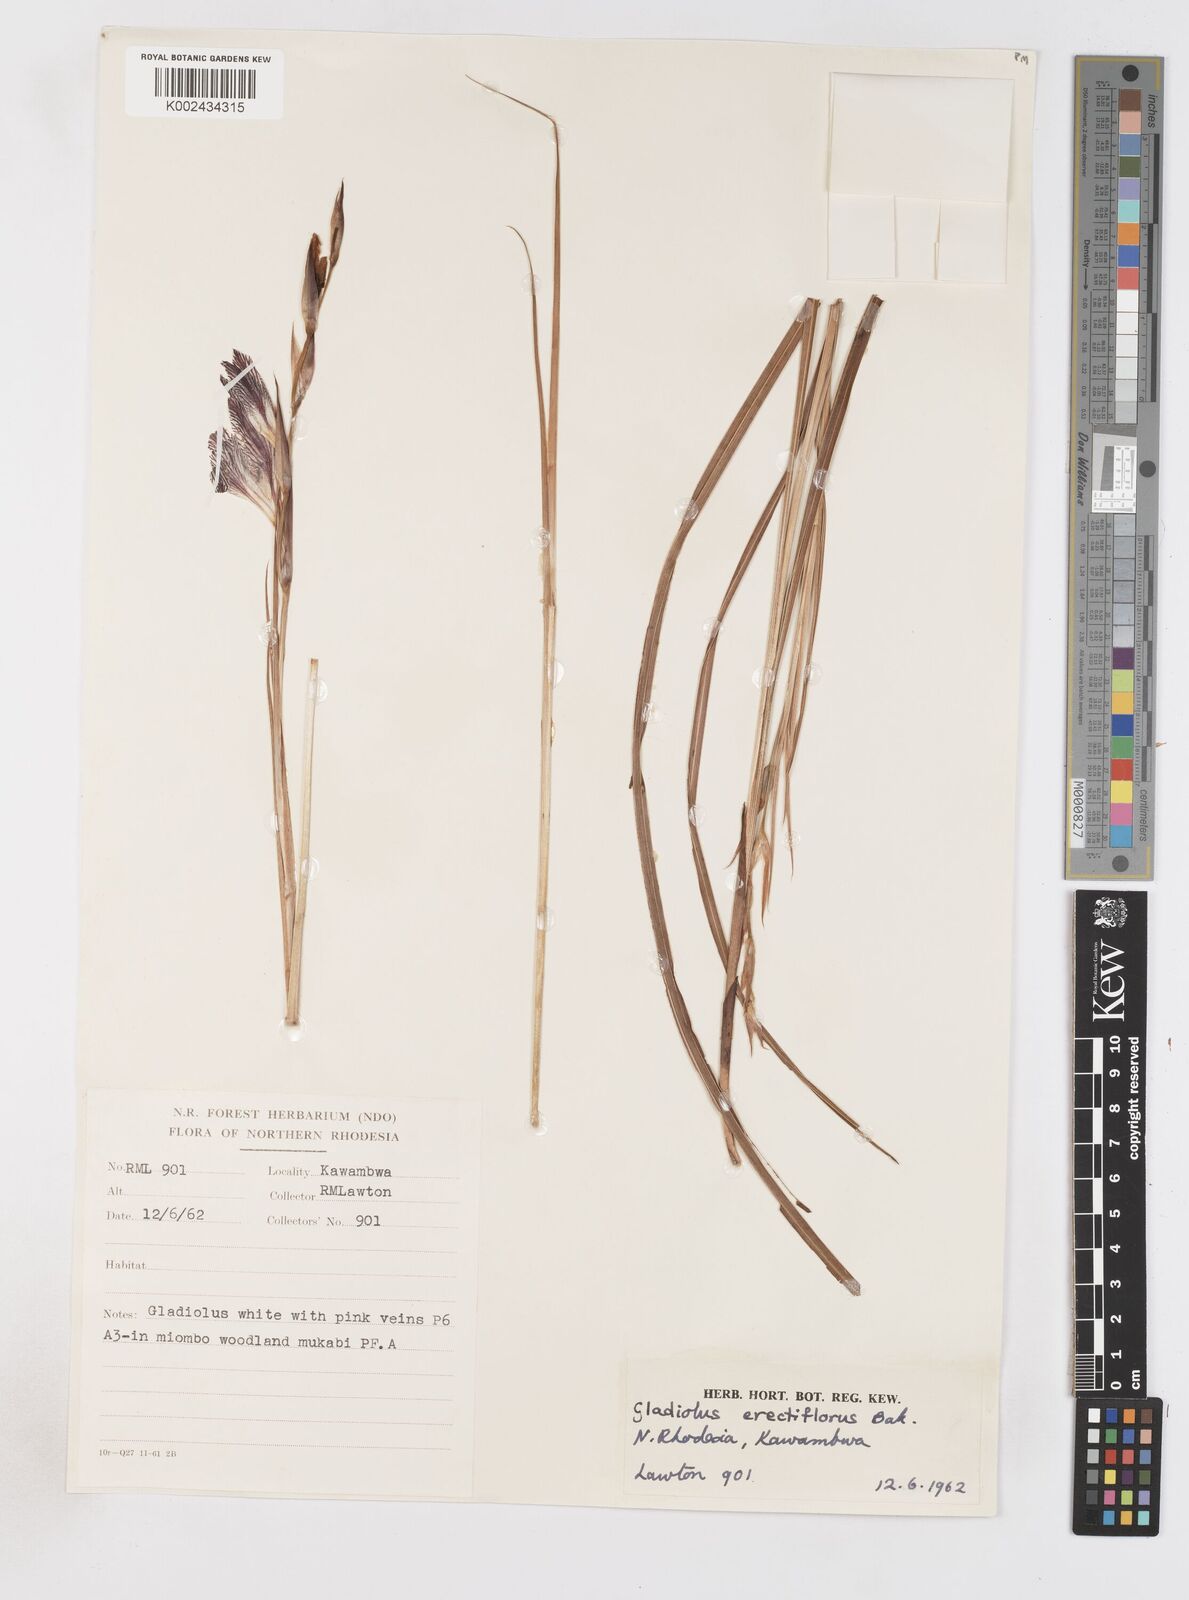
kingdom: Plantae
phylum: Tracheophyta
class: Liliopsida
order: Asparagales
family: Iridaceae
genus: Gladiolus
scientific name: Gladiolus erectiflorus
